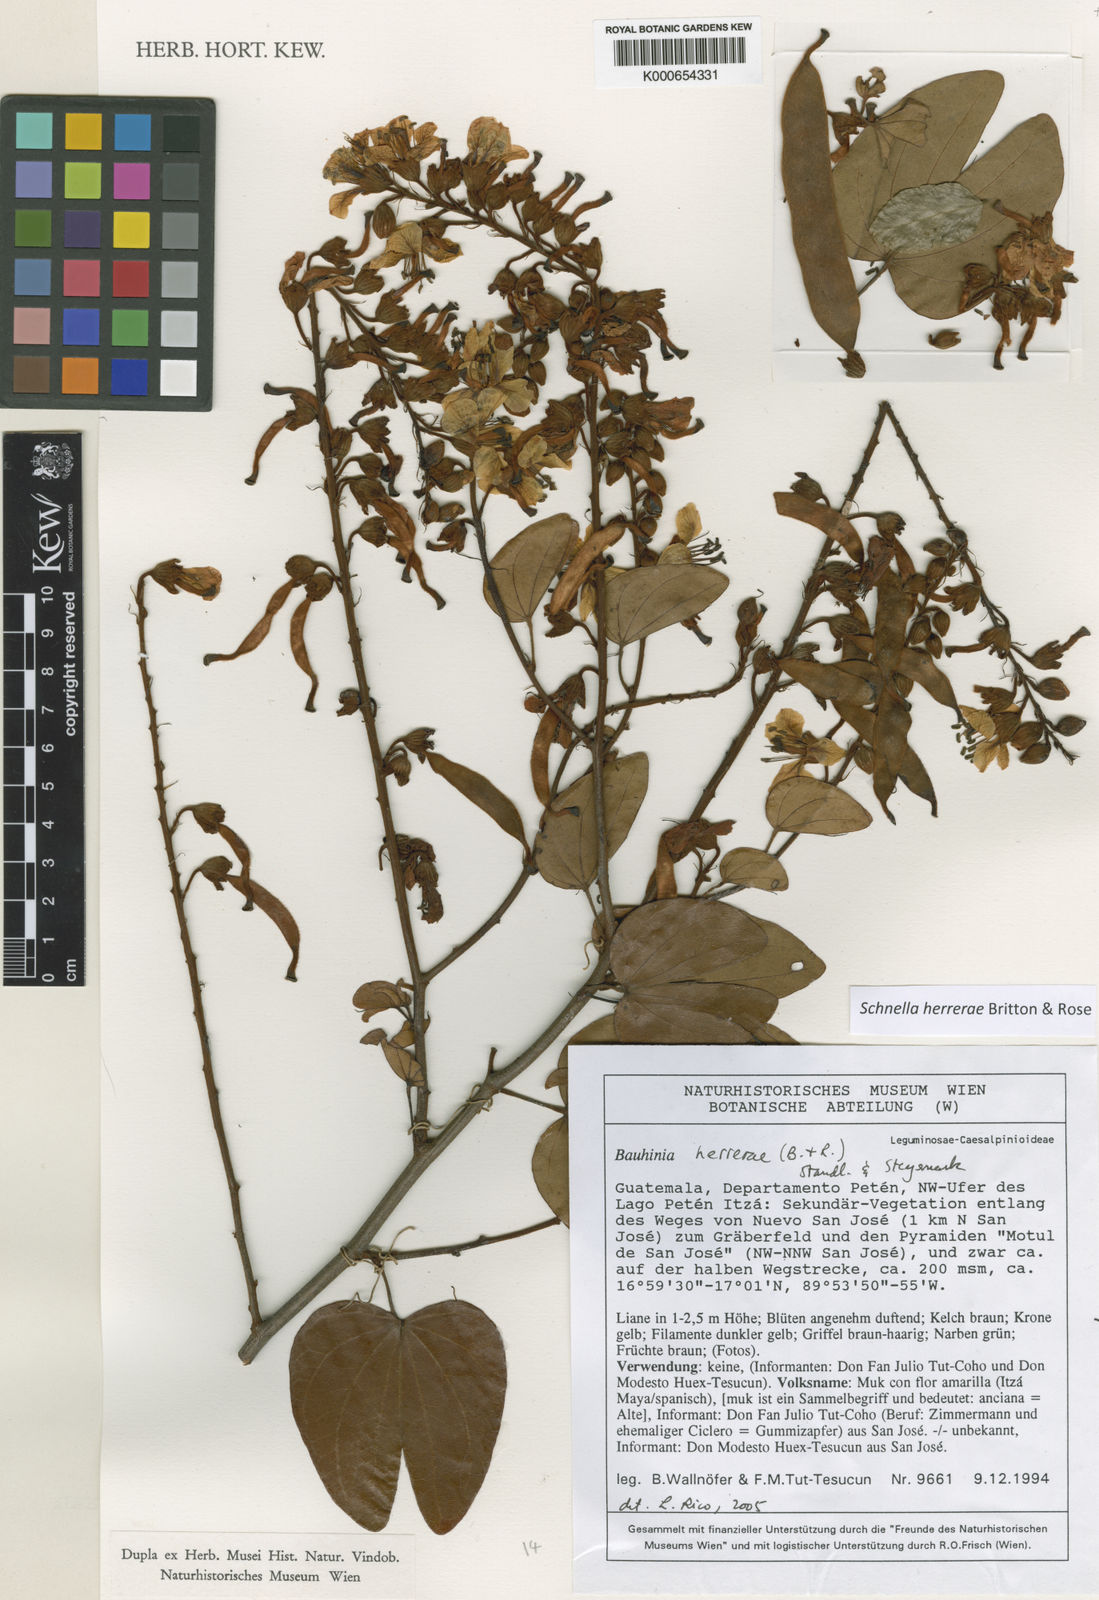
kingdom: Plantae
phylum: Tracheophyta
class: Magnoliopsida
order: Fabales
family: Fabaceae
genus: Schnella
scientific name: Schnella herrerae
